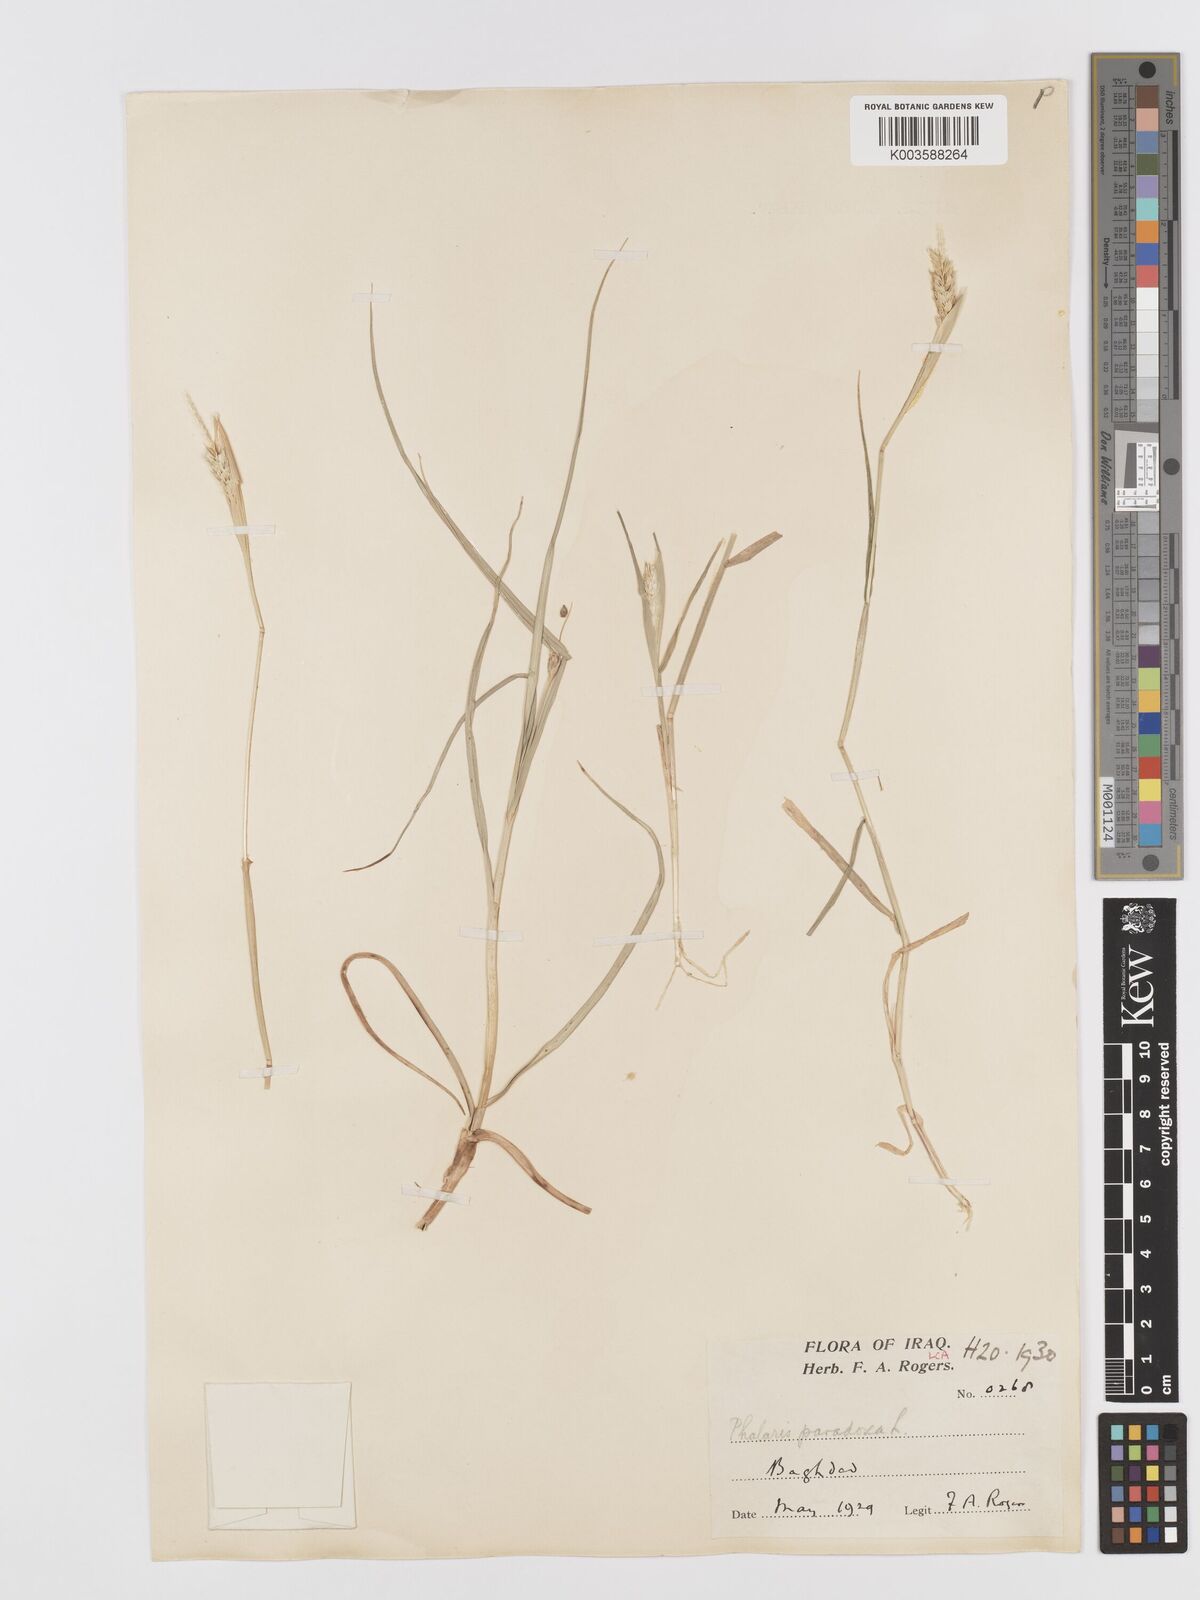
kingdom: Plantae
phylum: Tracheophyta
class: Liliopsida
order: Poales
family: Poaceae
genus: Phalaris
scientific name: Phalaris paradoxa
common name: Awned canary-grass
